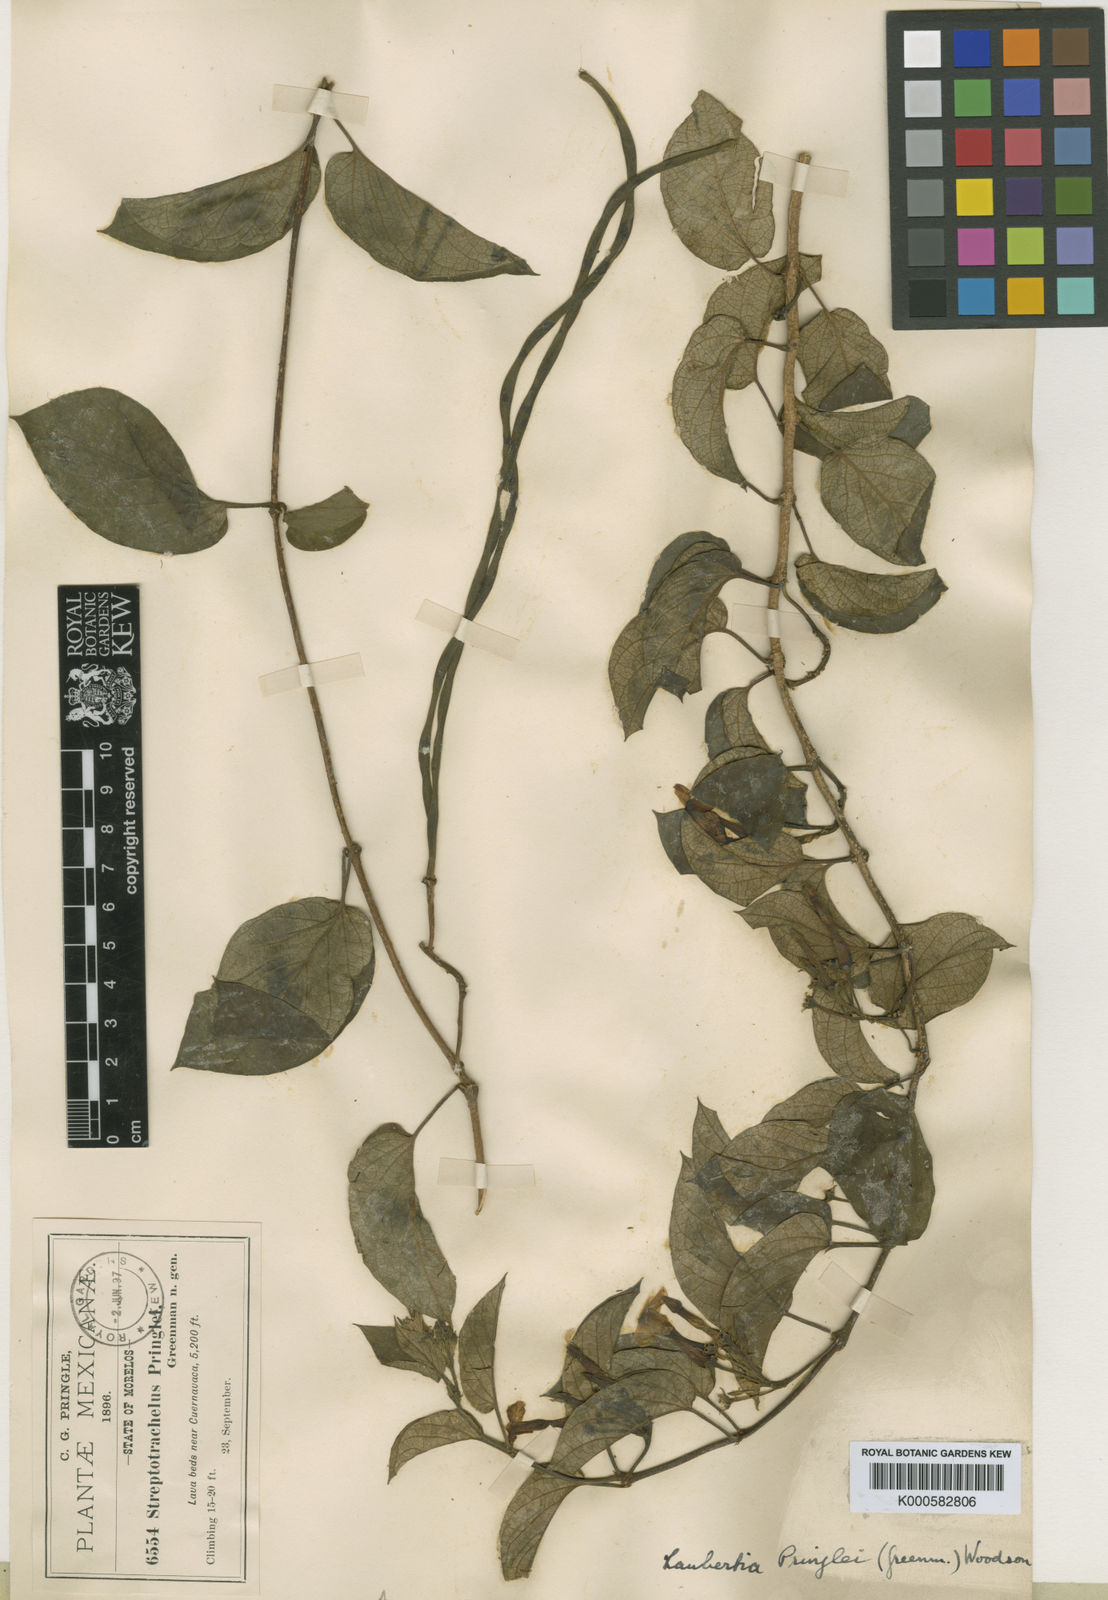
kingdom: Plantae
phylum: Tracheophyta
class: Magnoliopsida
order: Gentianales
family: Apocynaceae
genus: Laubertia
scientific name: Laubertia contorta
